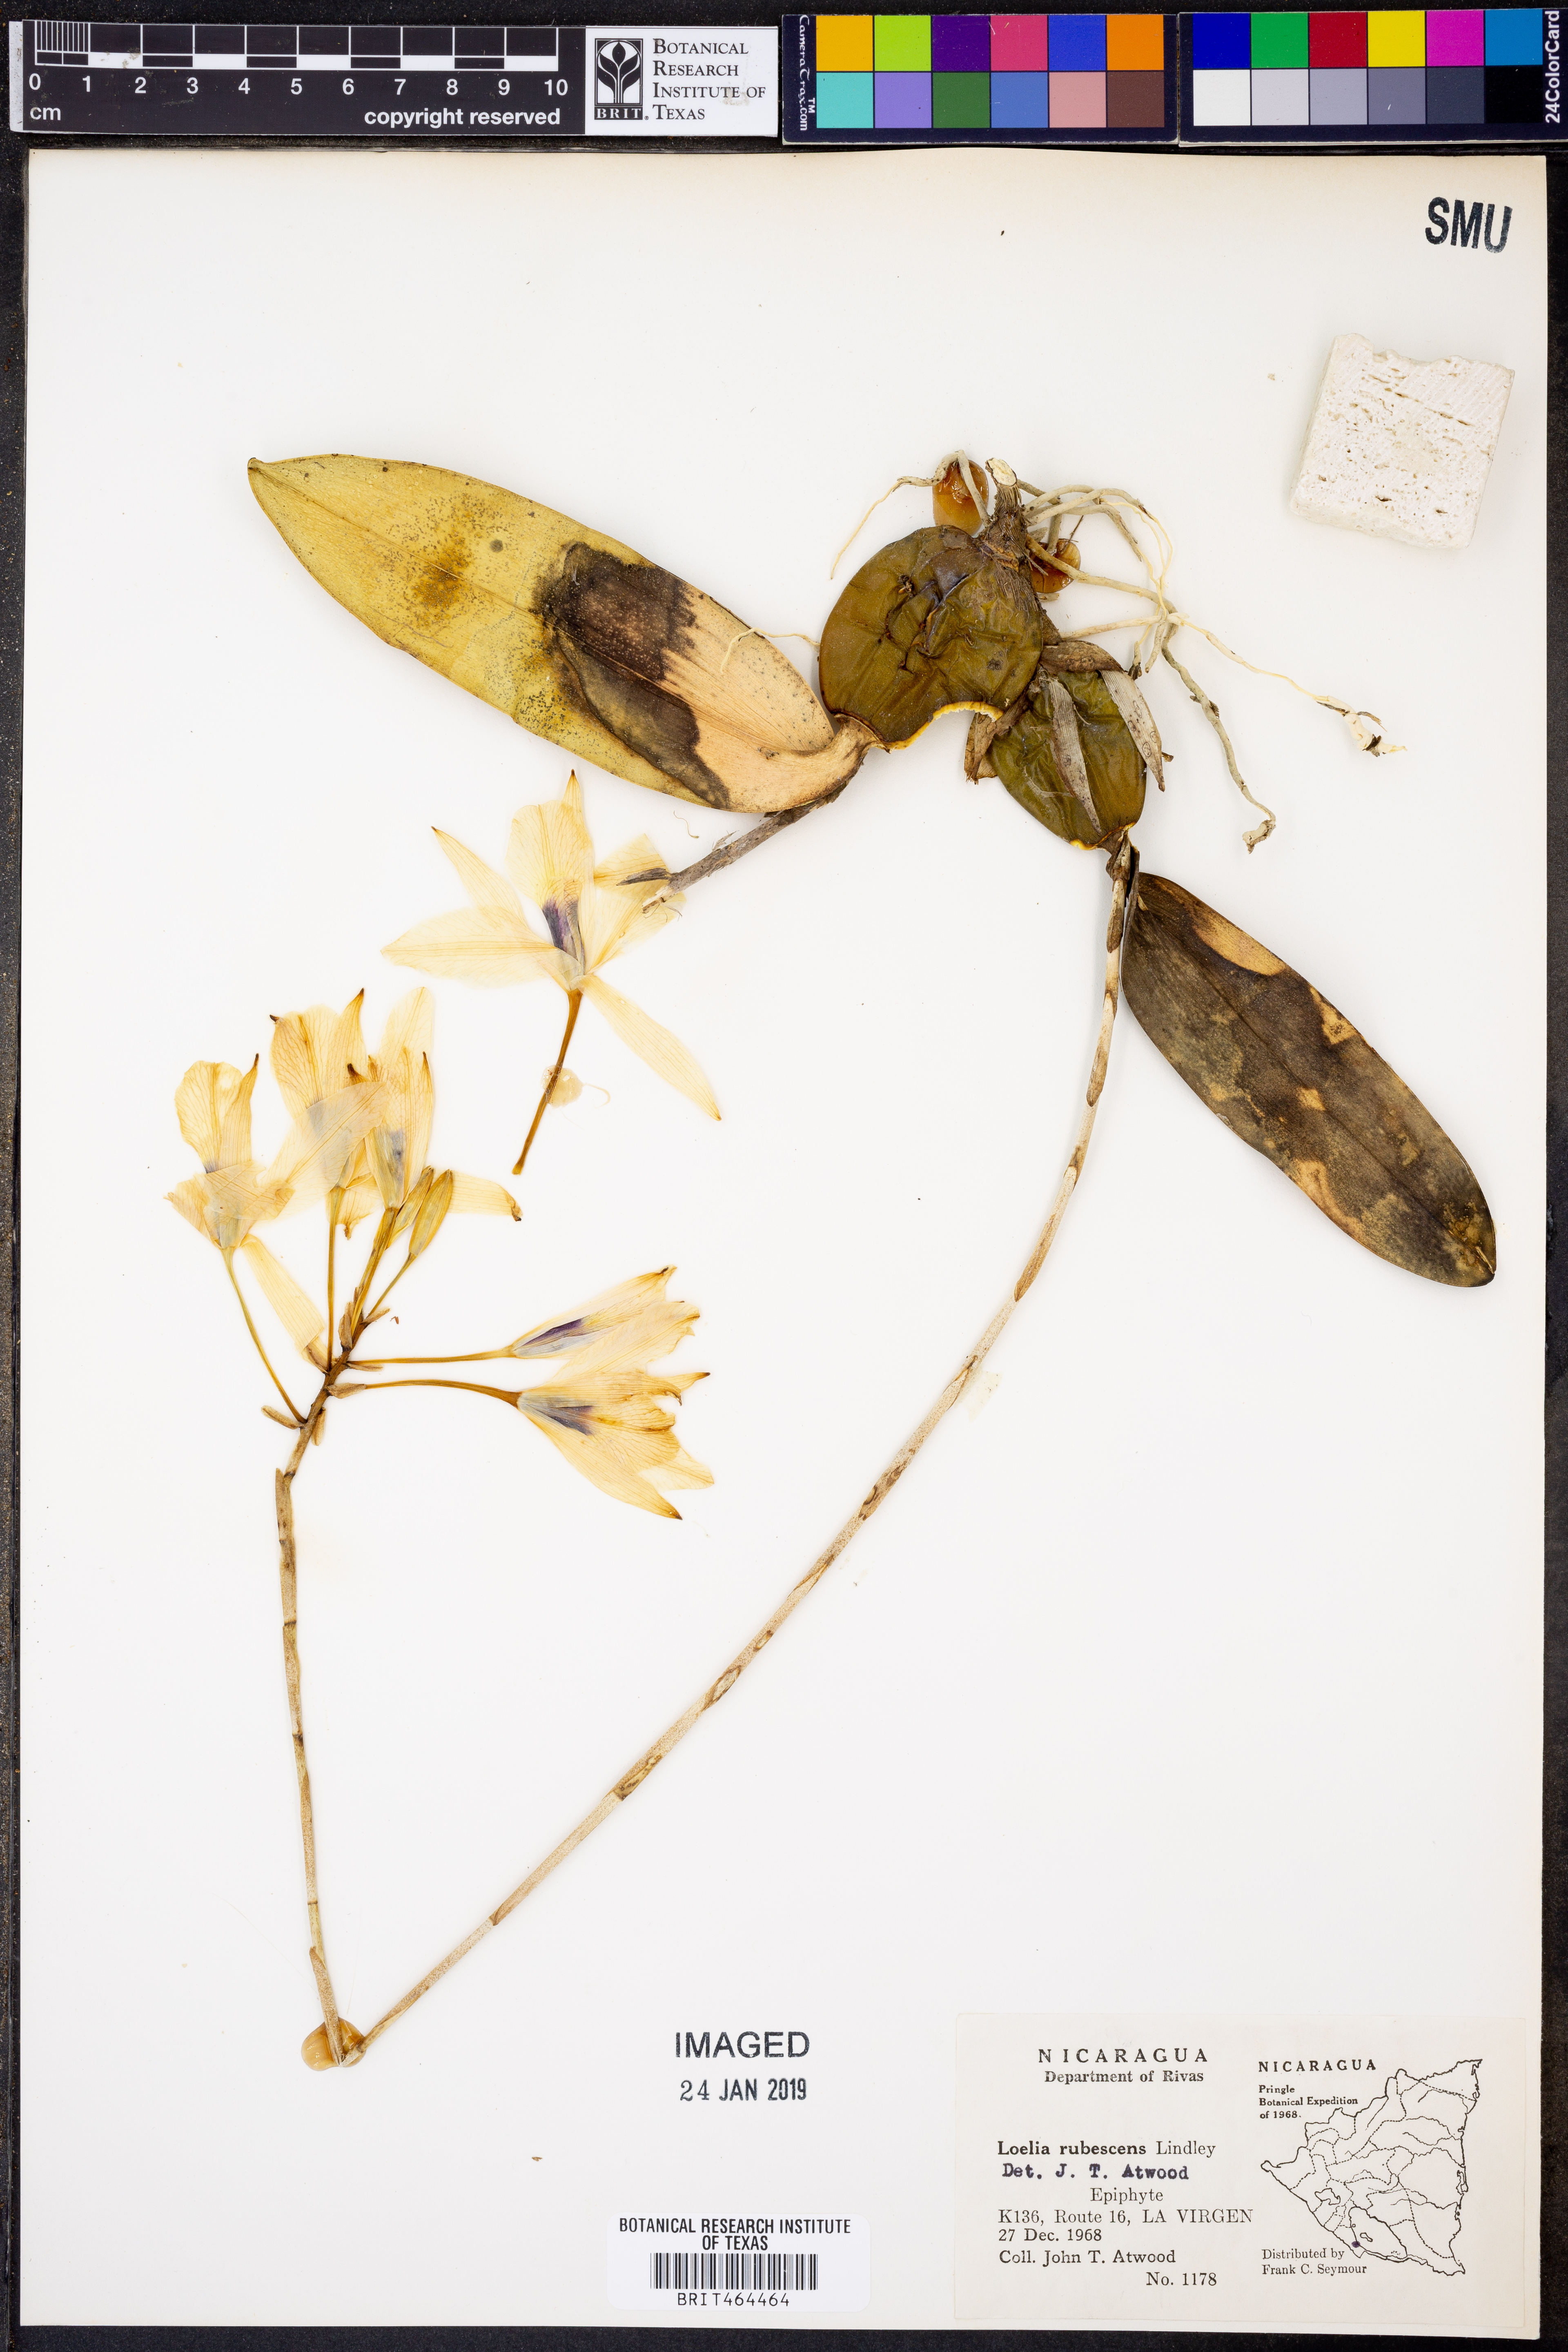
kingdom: Plantae
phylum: Tracheophyta
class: Liliopsida
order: Asparagales
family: Orchidaceae
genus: Laelia
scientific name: Laelia rubescens
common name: Pale laelia
